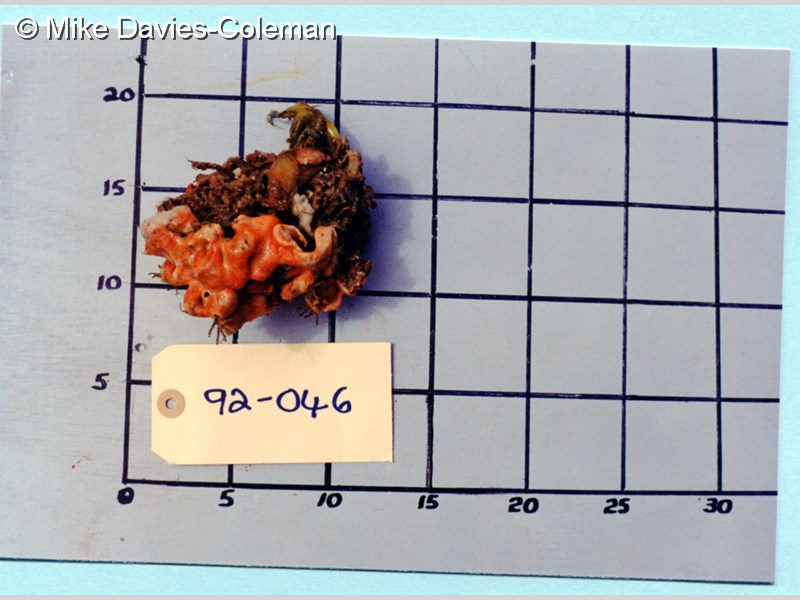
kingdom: Animalia
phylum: Chordata
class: Ascidiacea
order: Aplousobranchia
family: Didemnidae
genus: Didemnum
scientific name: Didemnum
